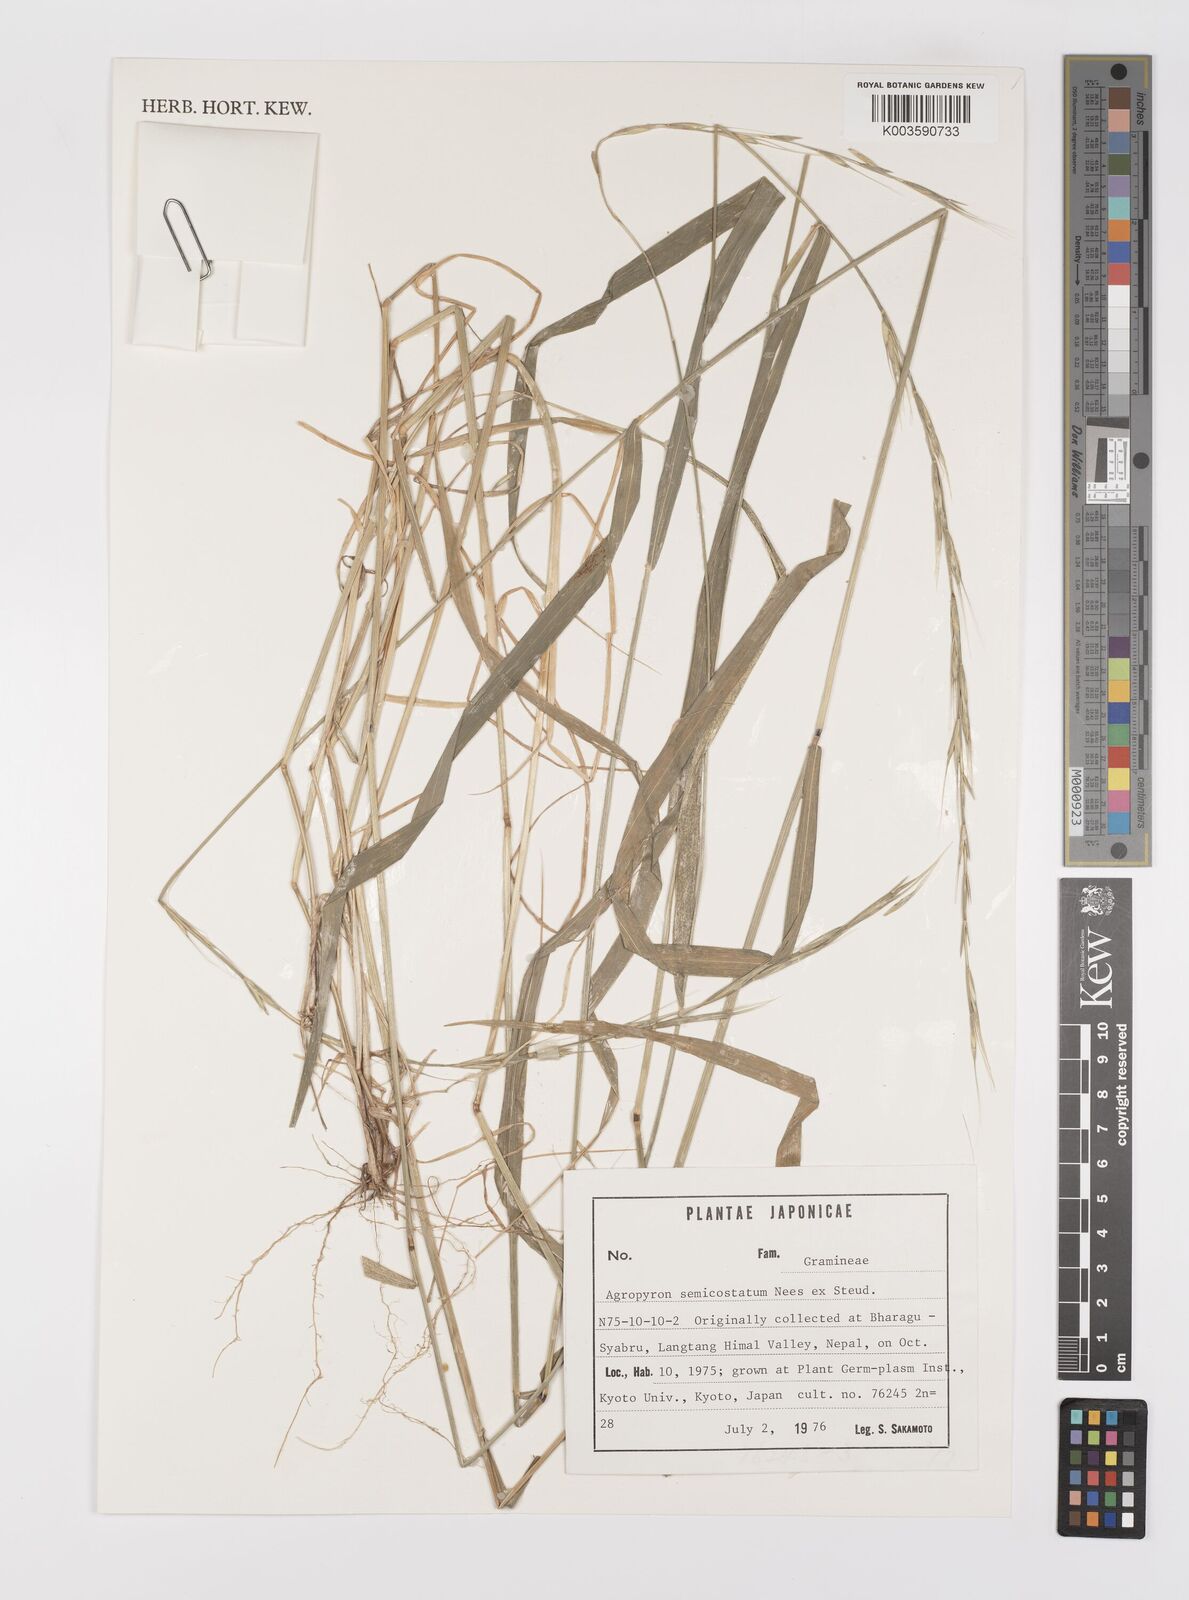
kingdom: Plantae
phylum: Tracheophyta
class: Liliopsida
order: Poales
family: Poaceae
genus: Elymus
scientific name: Elymus semicostatus
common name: Drooping wildrye
